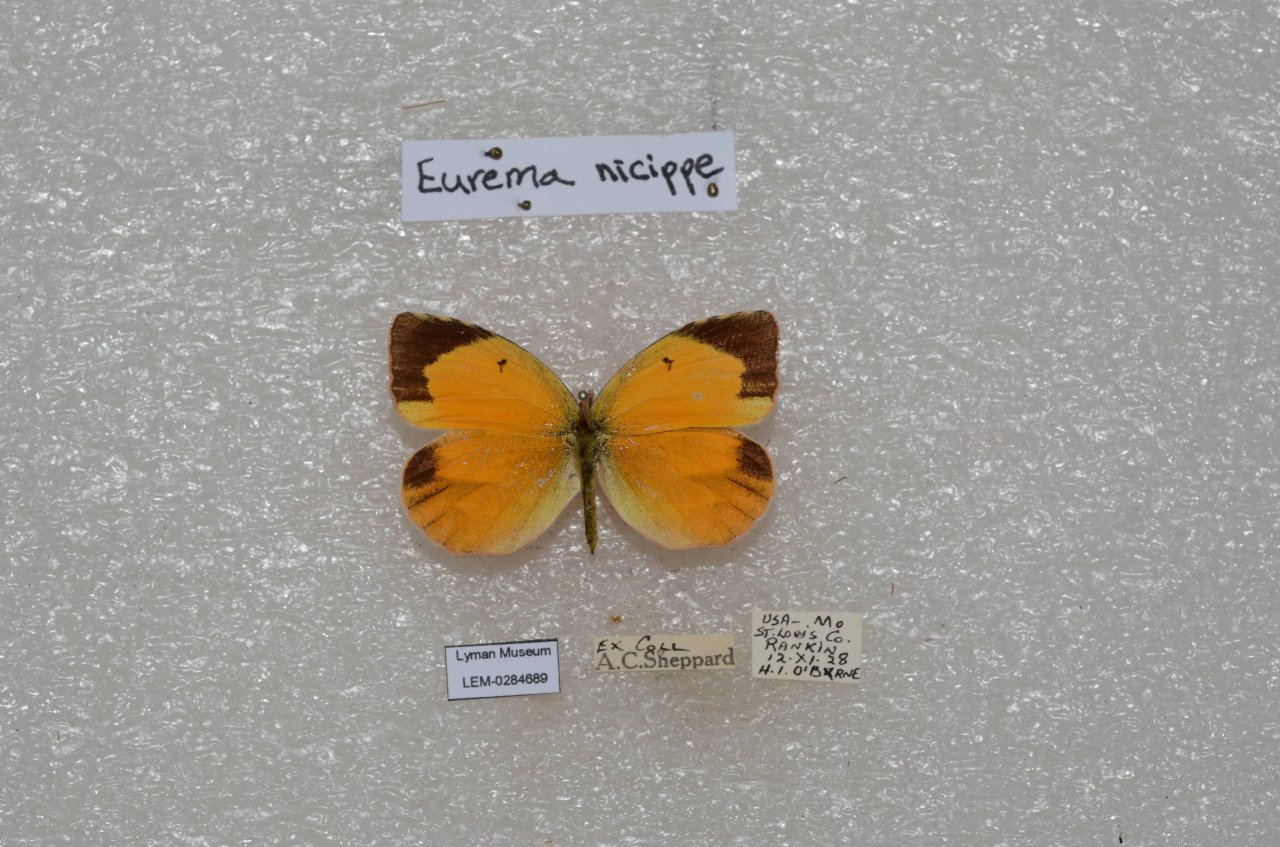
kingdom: Animalia
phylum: Arthropoda
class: Insecta
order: Lepidoptera
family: Pieridae
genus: Abaeis
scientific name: Abaeis nicippe
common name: Sleepy Orange
